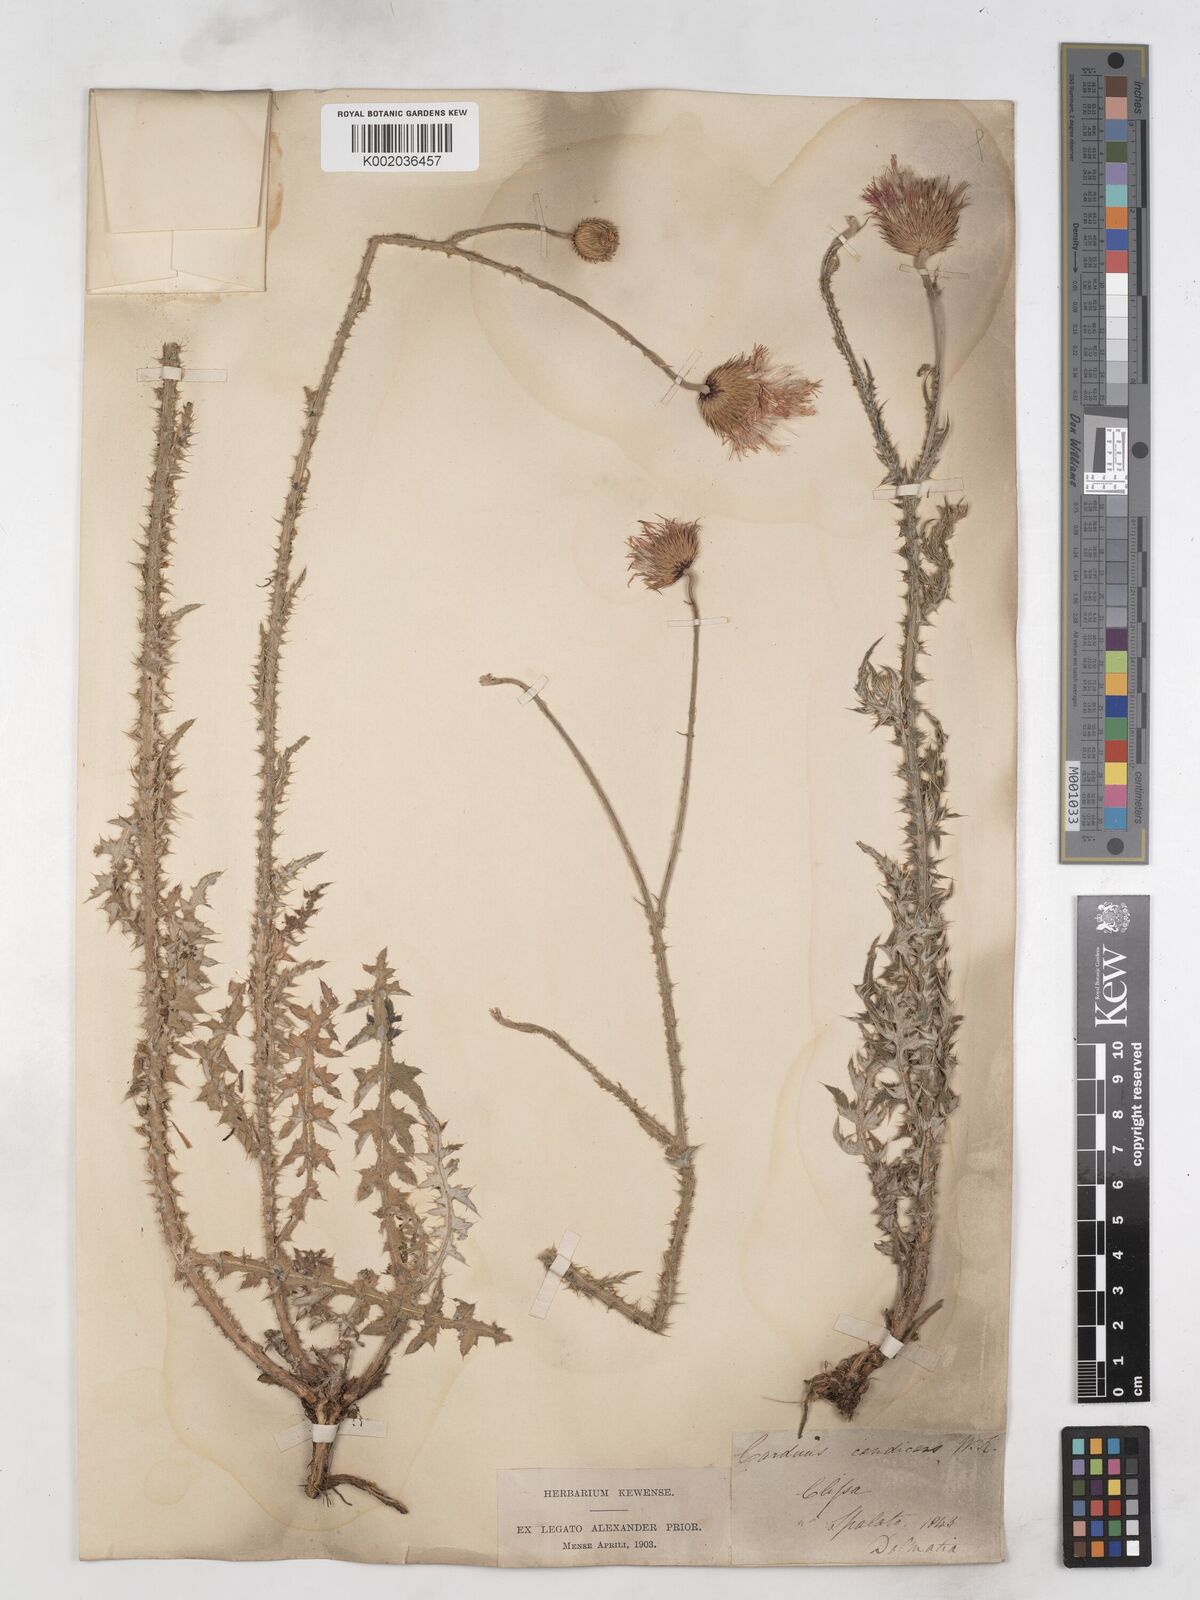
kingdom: Plantae
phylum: Tracheophyta
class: Magnoliopsida
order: Asterales
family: Asteraceae
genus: Carduus
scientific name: Carduus candicans
